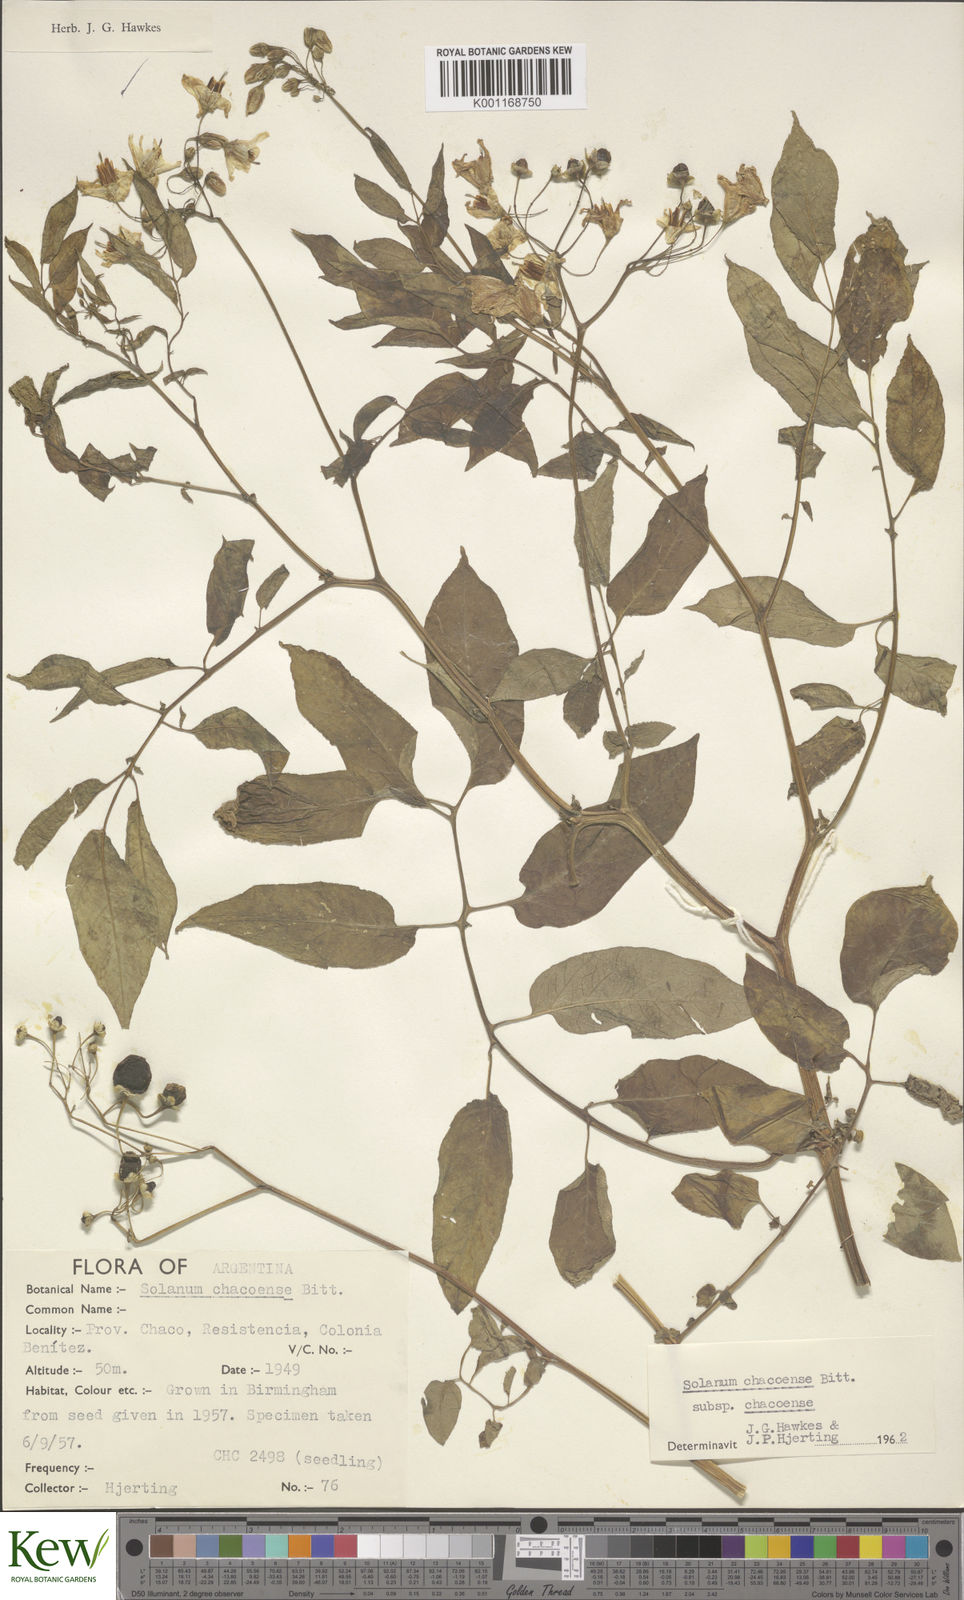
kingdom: Plantae
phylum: Tracheophyta
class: Magnoliopsida
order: Solanales
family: Solanaceae
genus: Solanum
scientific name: Solanum chacoense
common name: Chaco potato
